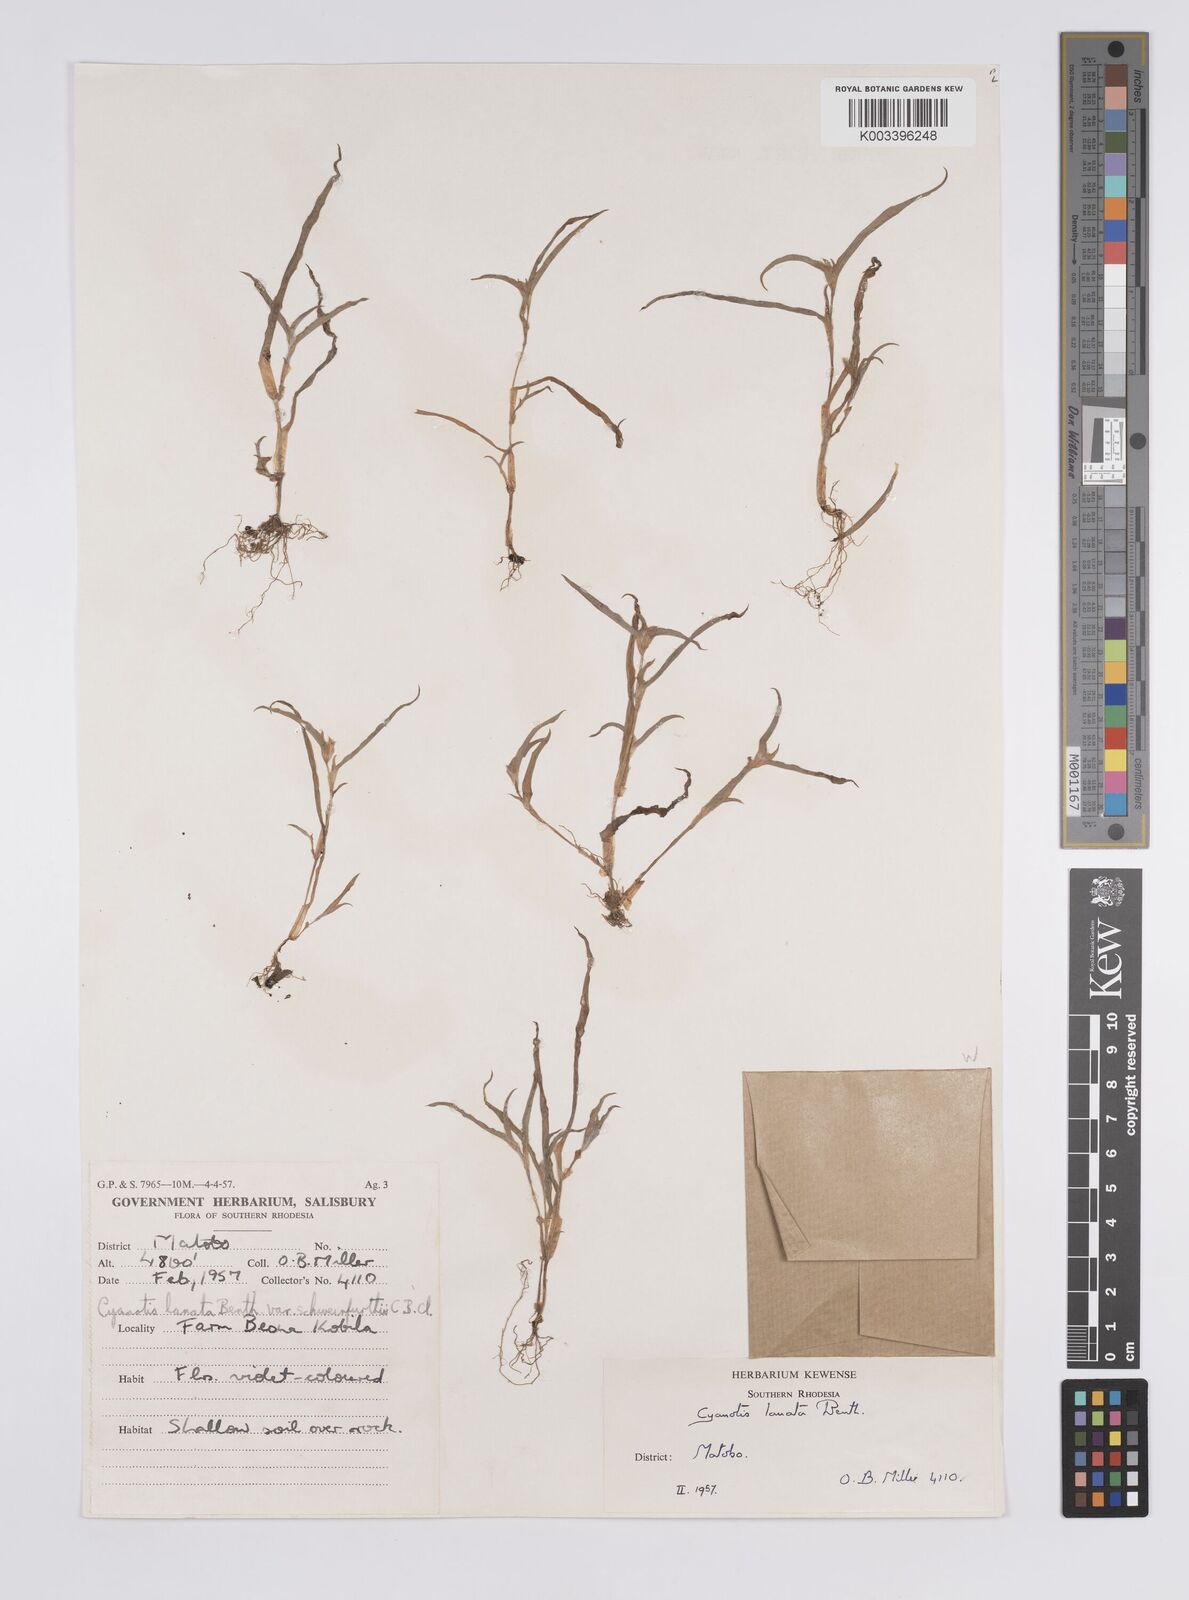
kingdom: Plantae
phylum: Tracheophyta
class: Liliopsida
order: Commelinales
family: Commelinaceae
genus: Cyanotis
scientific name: Cyanotis lanata
